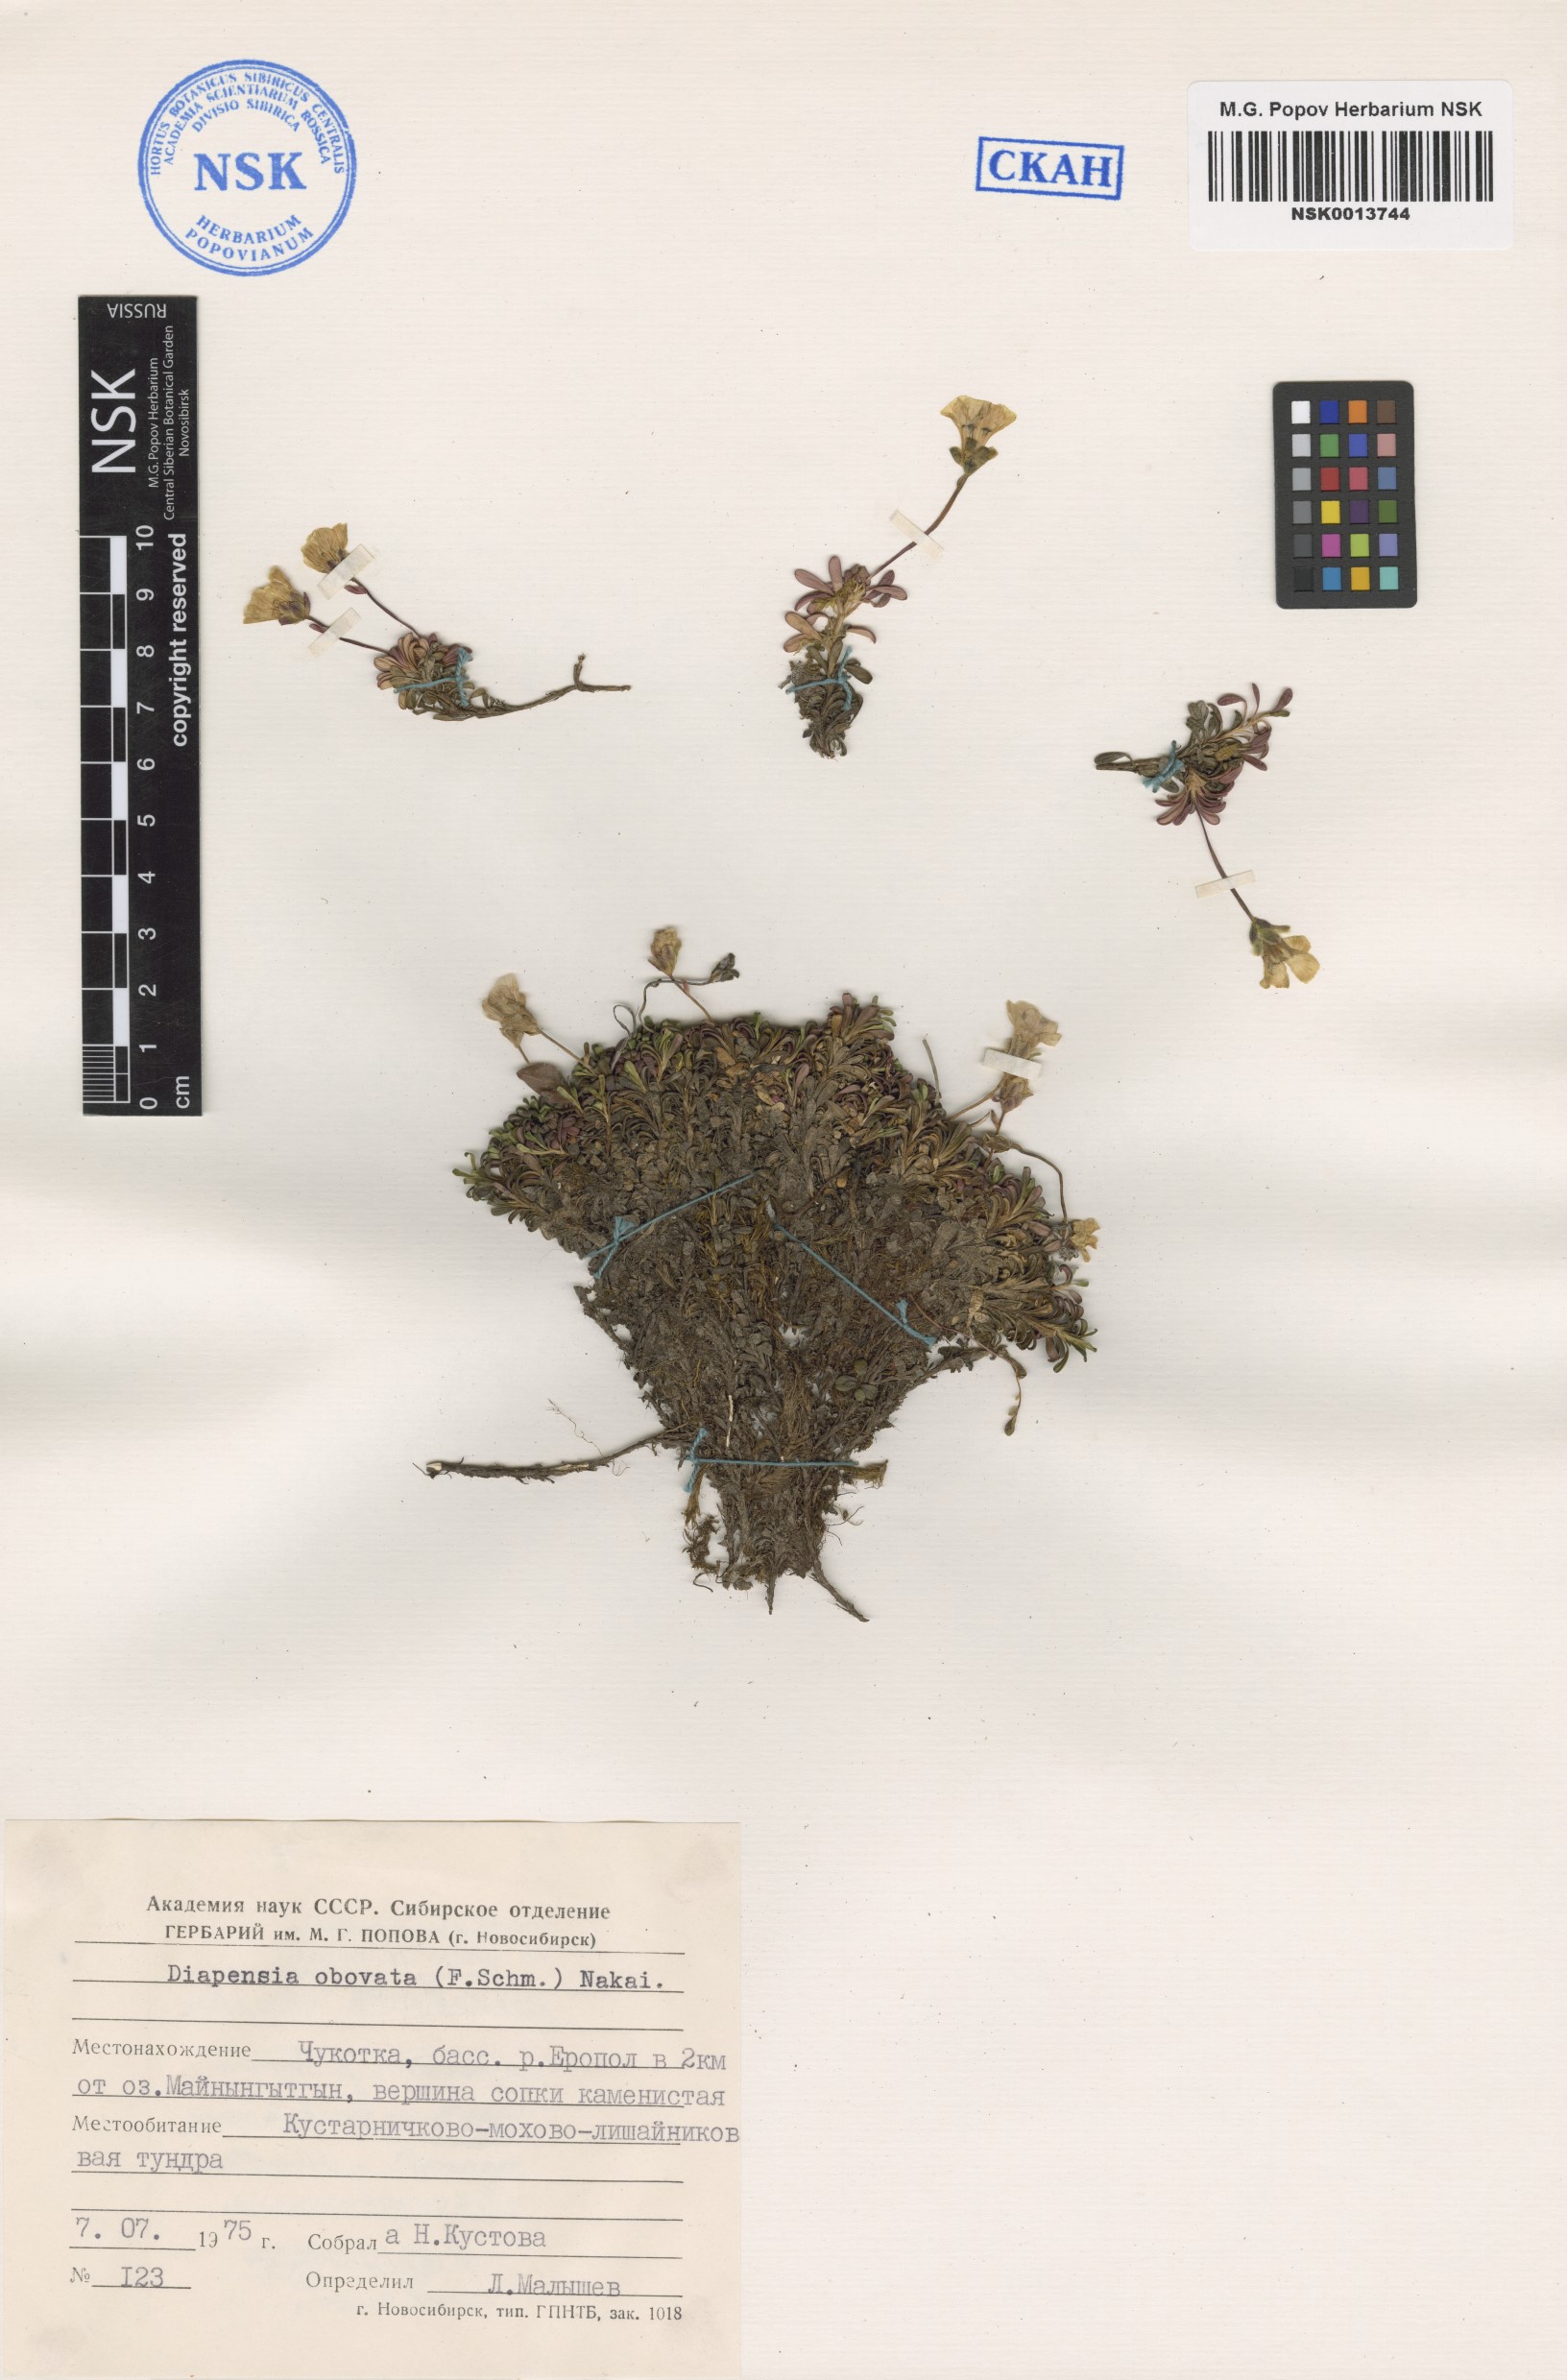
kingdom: Plantae
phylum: Tracheophyta
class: Magnoliopsida
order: Ericales
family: Diapensiaceae
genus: Diapensia
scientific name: Diapensia obovata
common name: Alaska diapensia
